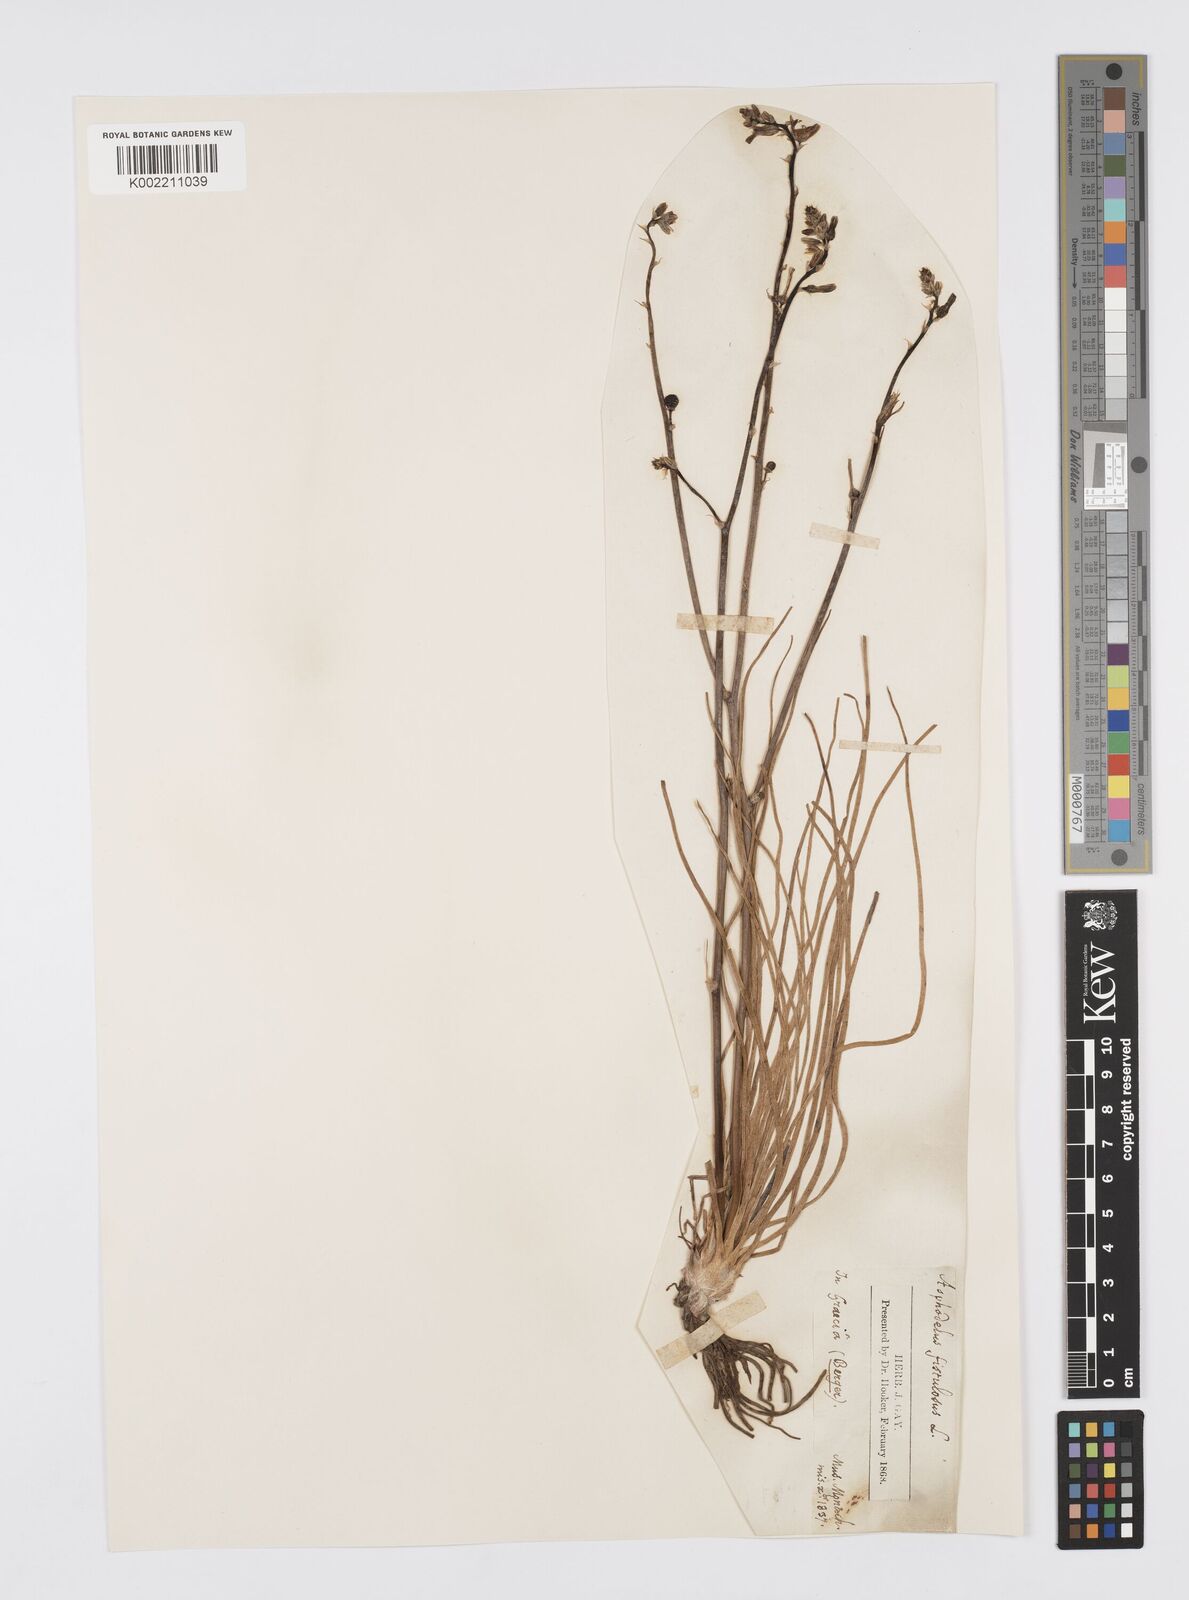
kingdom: Plantae
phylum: Tracheophyta
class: Liliopsida
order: Asparagales
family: Asphodelaceae
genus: Asphodelus
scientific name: Asphodelus fistulosus
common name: Onionweed
